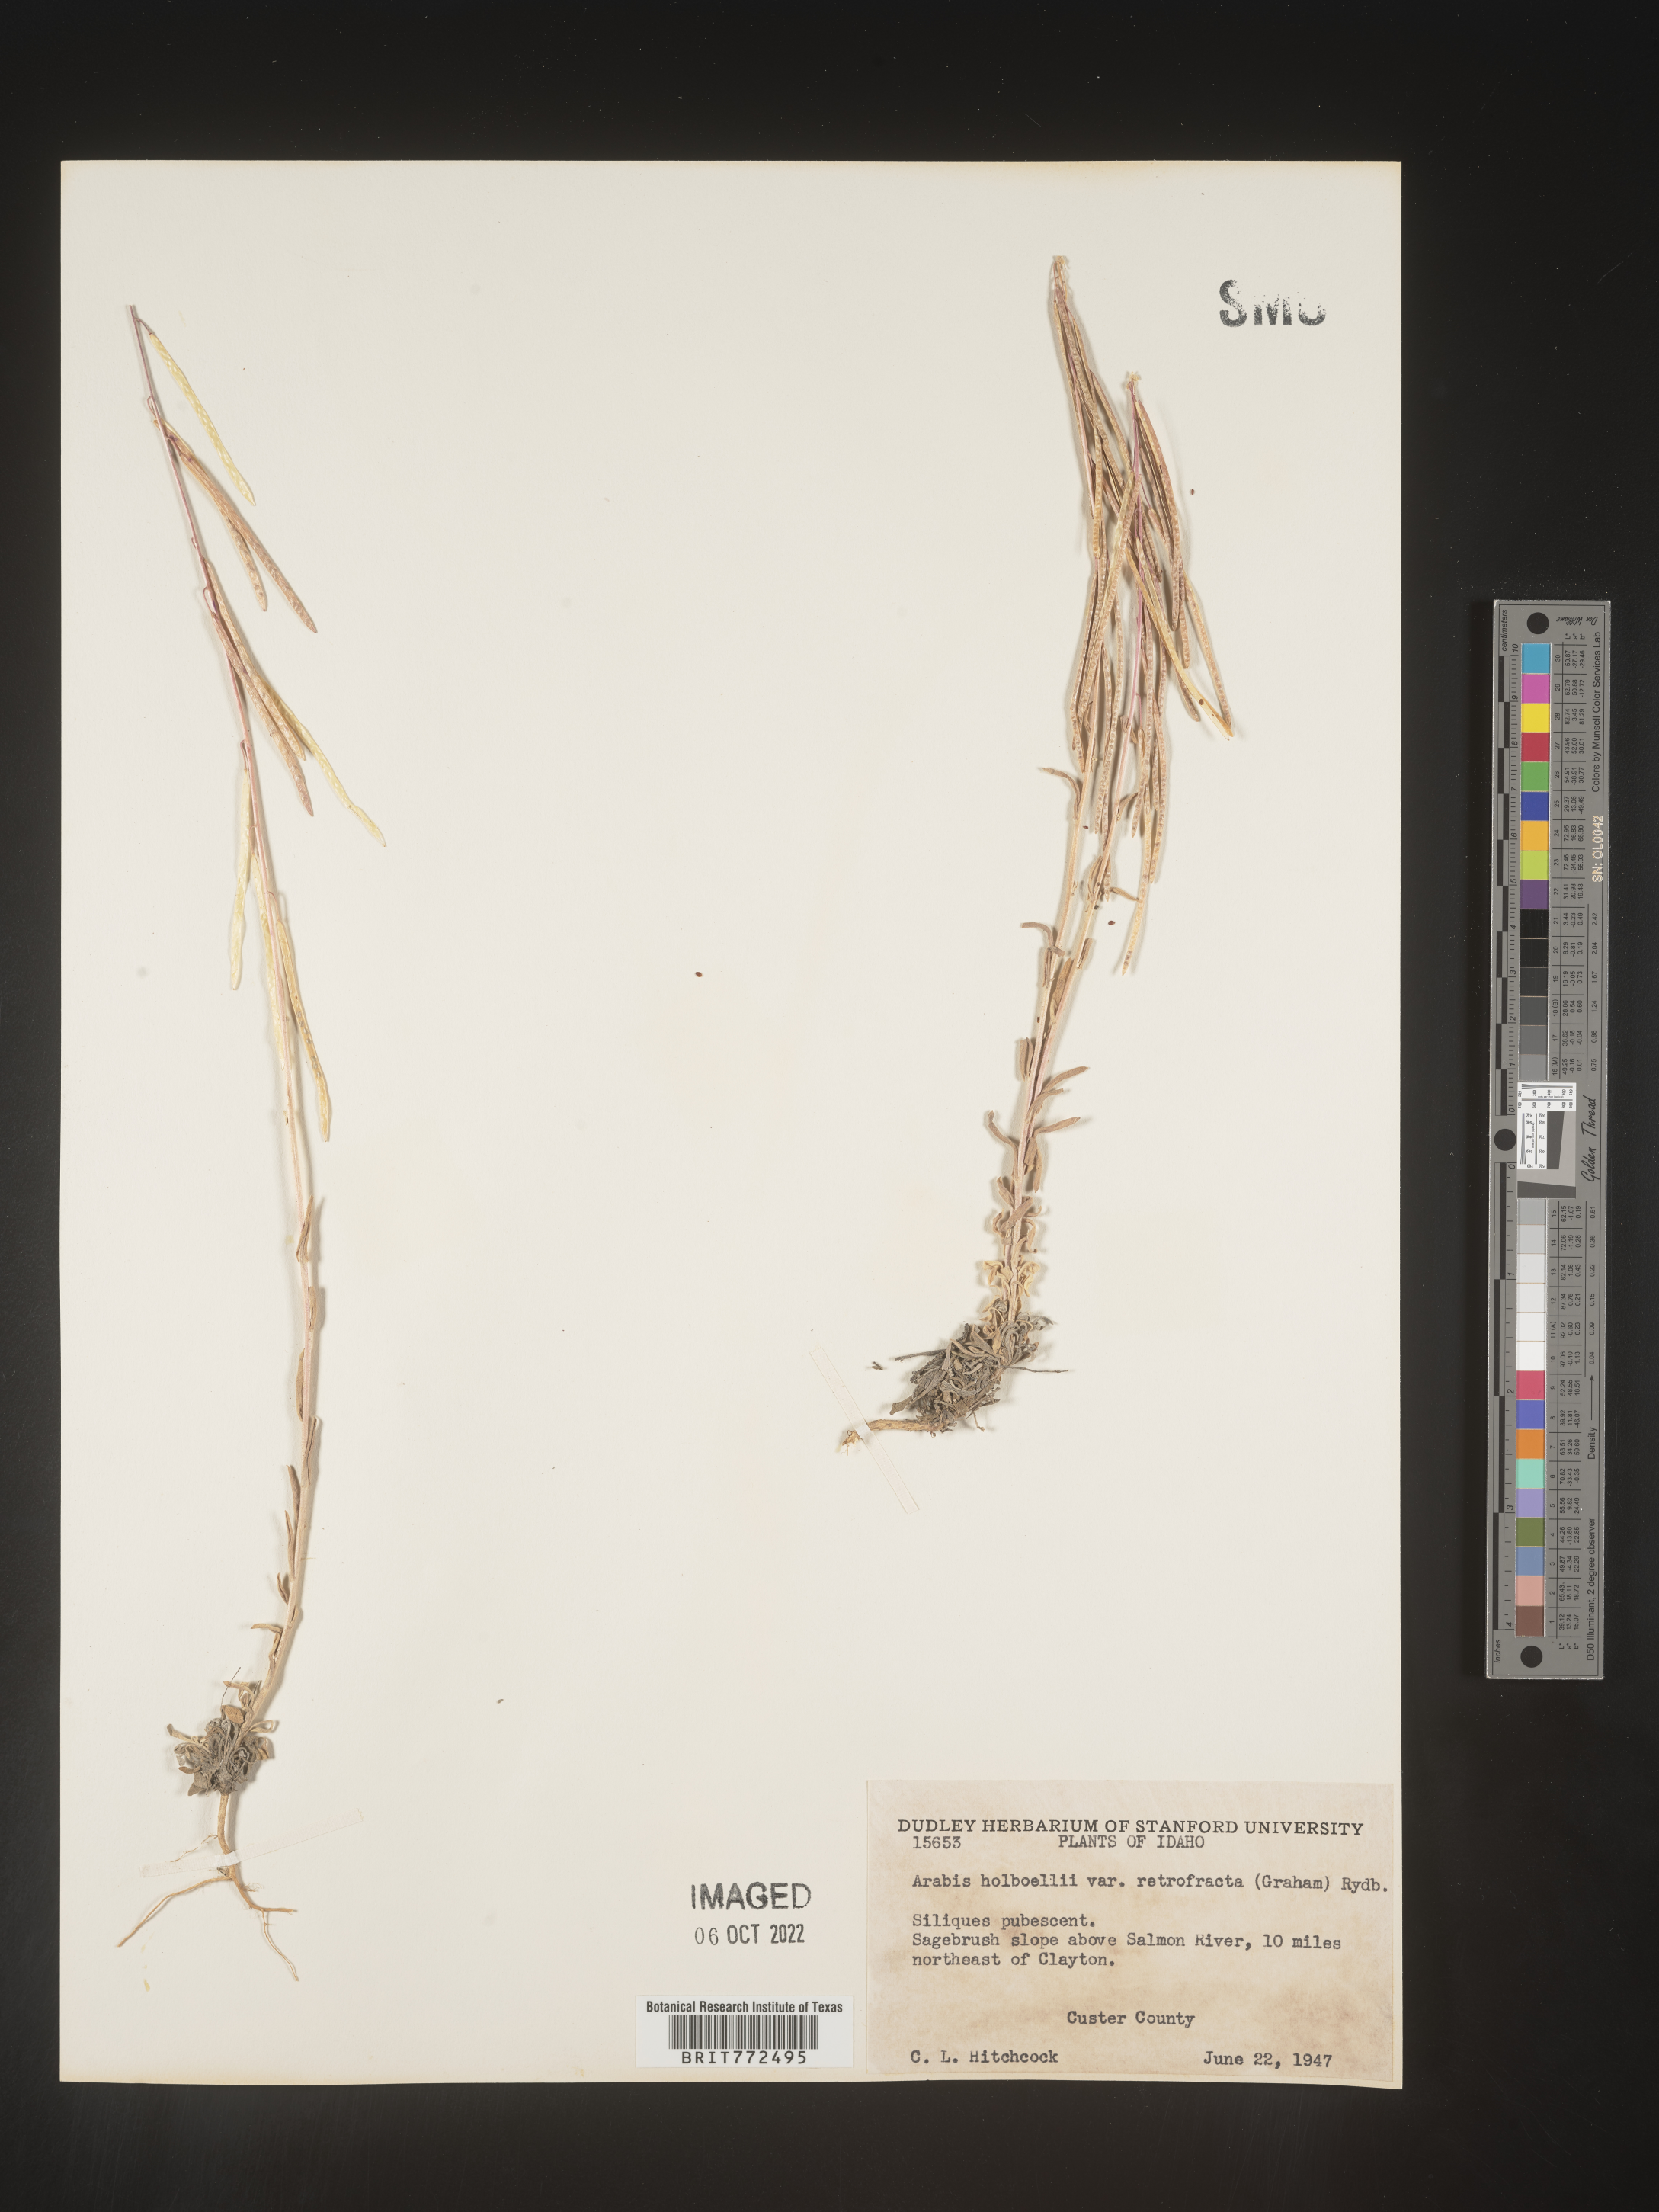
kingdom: Plantae
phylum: Tracheophyta
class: Magnoliopsida
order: Brassicales
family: Brassicaceae
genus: Boechera
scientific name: Boechera holboellii
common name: Holboell's rockcress
